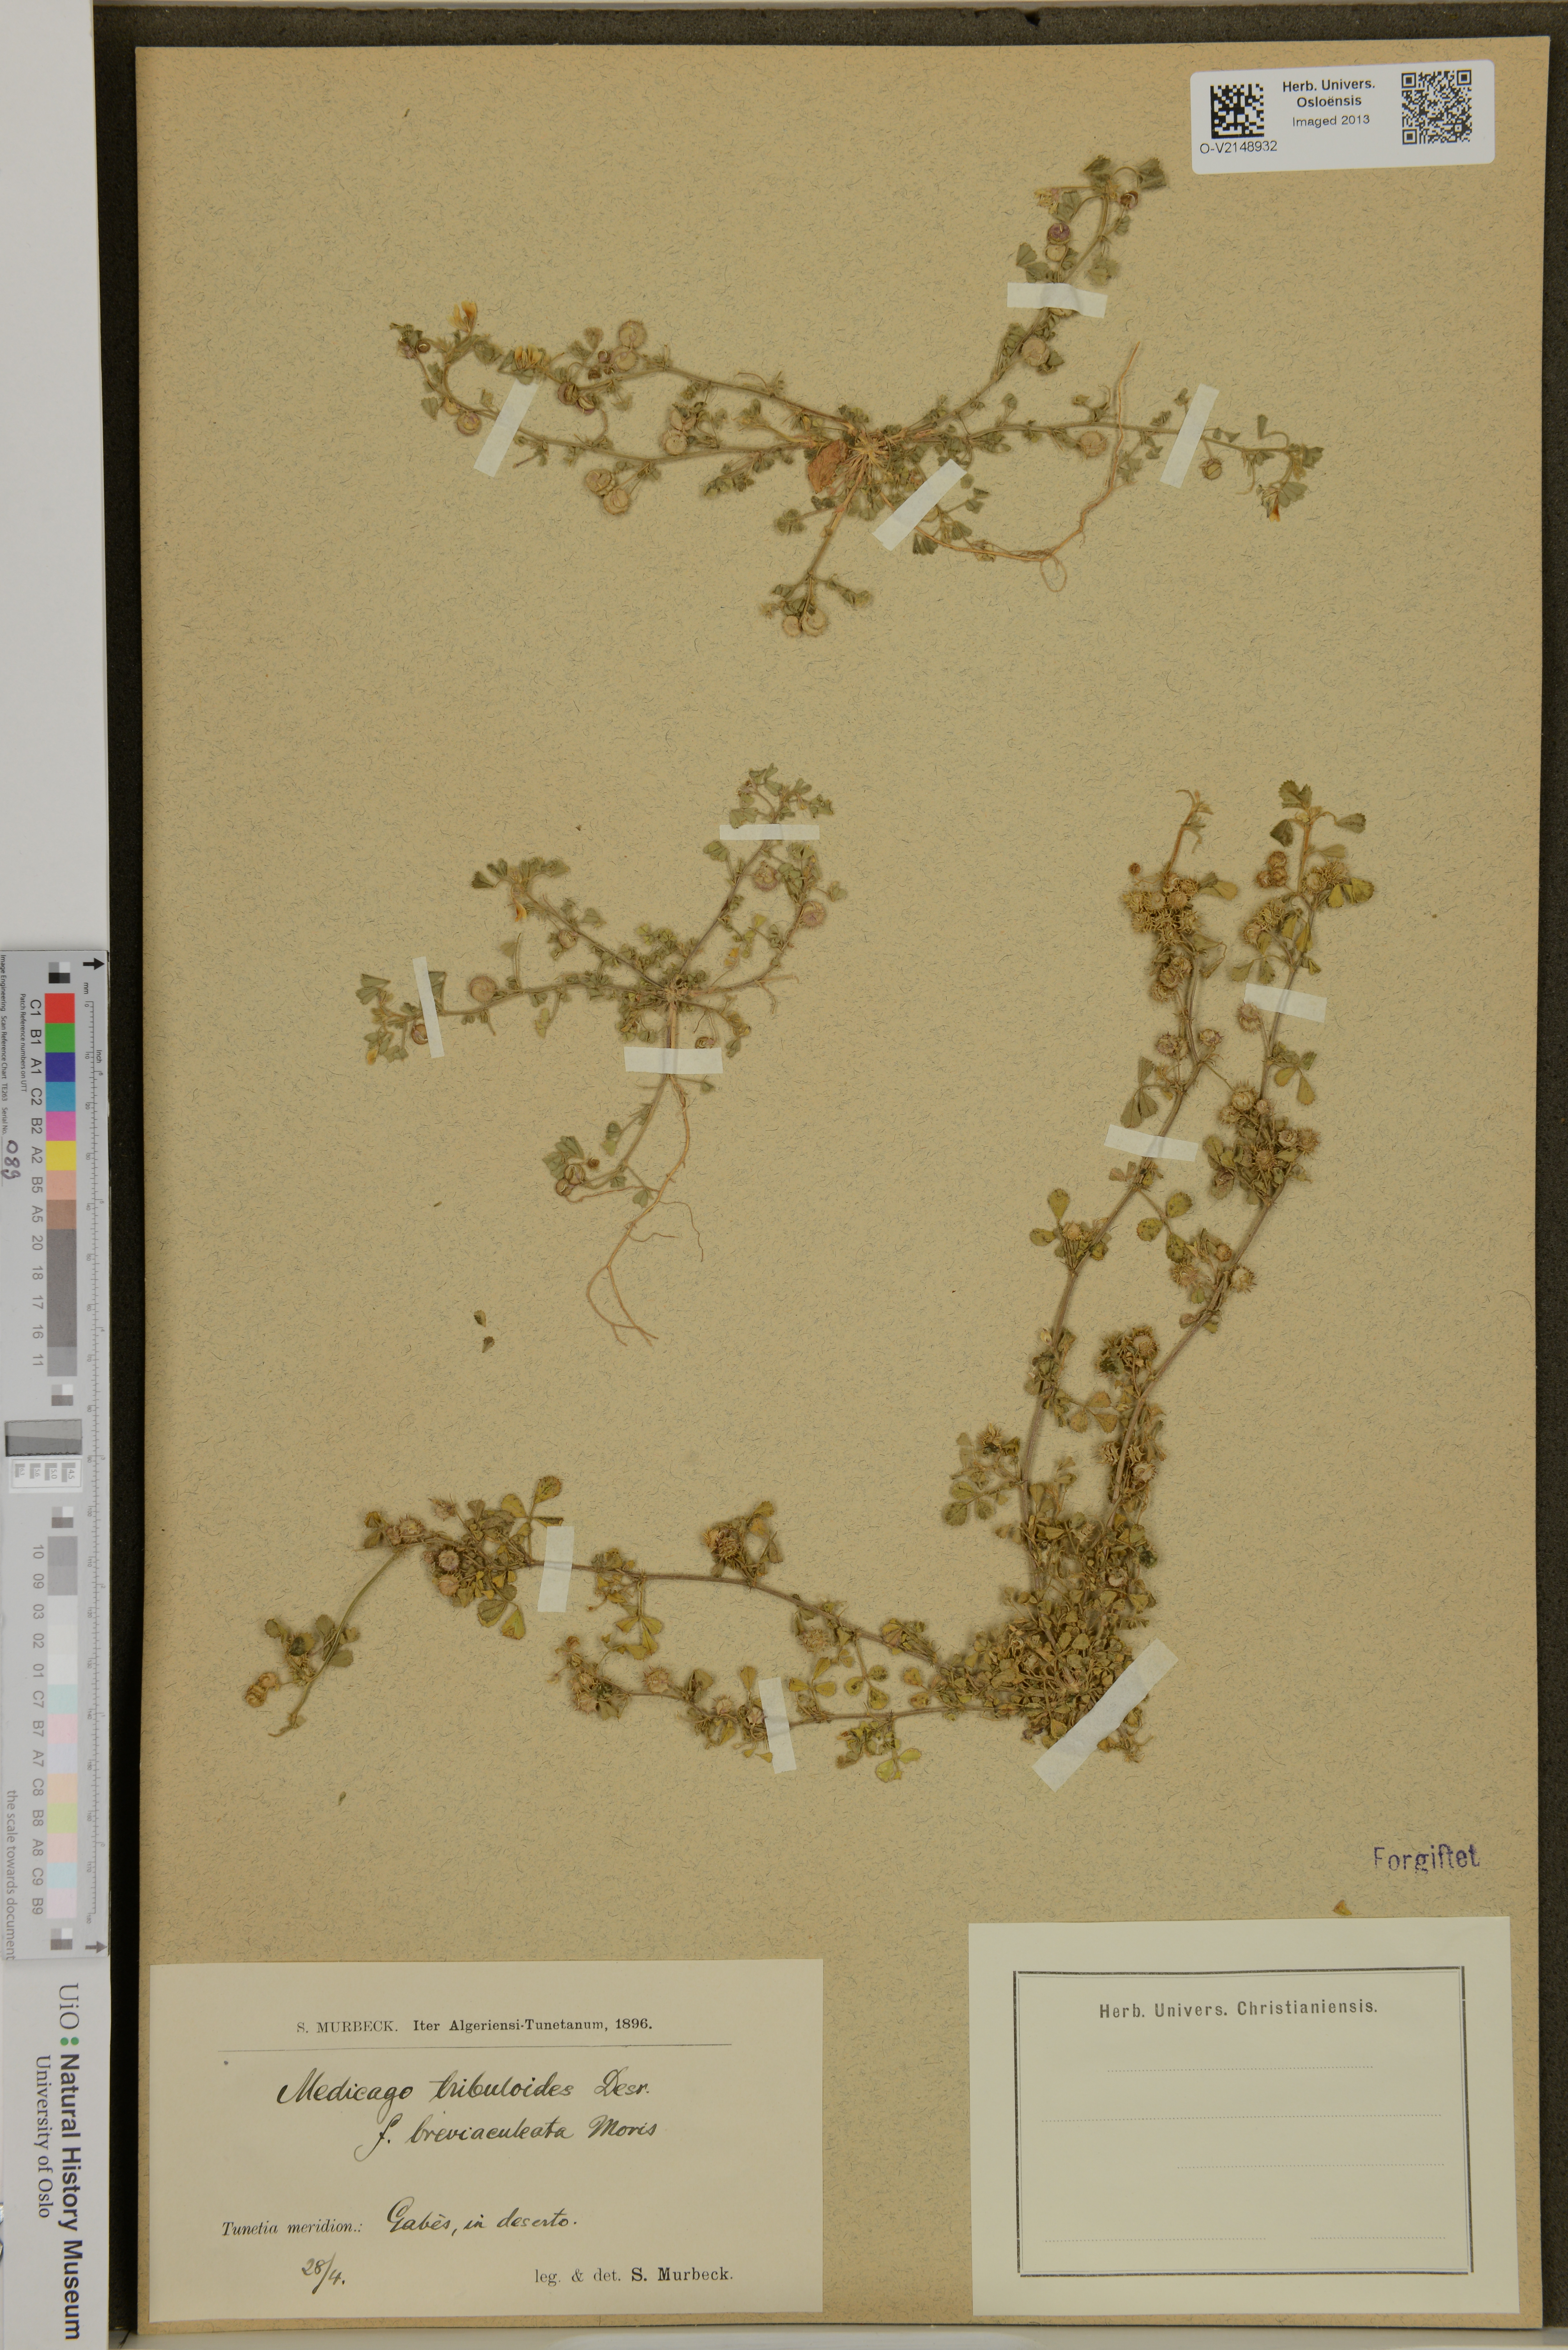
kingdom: Plantae
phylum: Tracheophyta
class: Magnoliopsida
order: Fabales
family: Fabaceae
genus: Medicago
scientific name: Medicago truncatula
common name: Strong-spined medick
